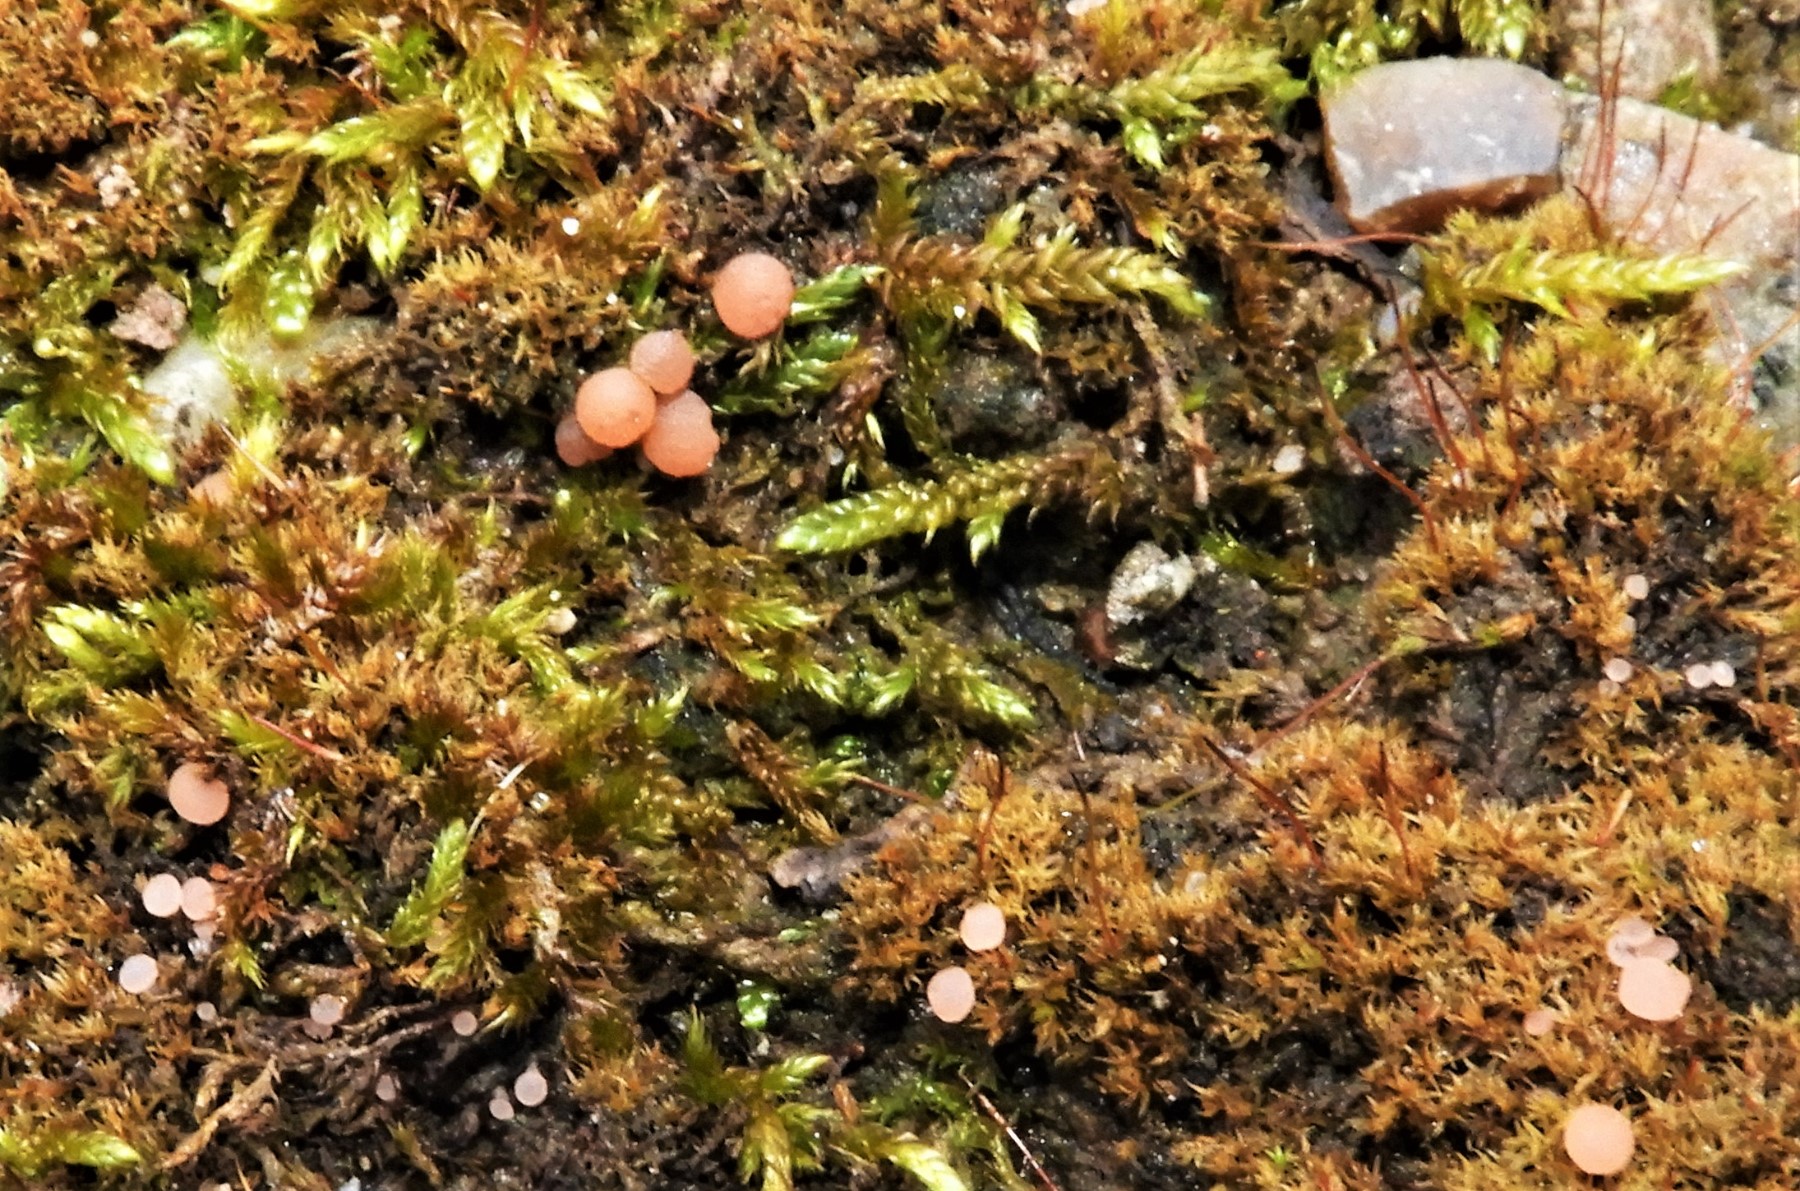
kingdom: Fungi
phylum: Ascomycota
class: Leotiomycetes
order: Helotiales
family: Hyaloscyphaceae
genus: Roseodiscus
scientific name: Roseodiscus formosus
